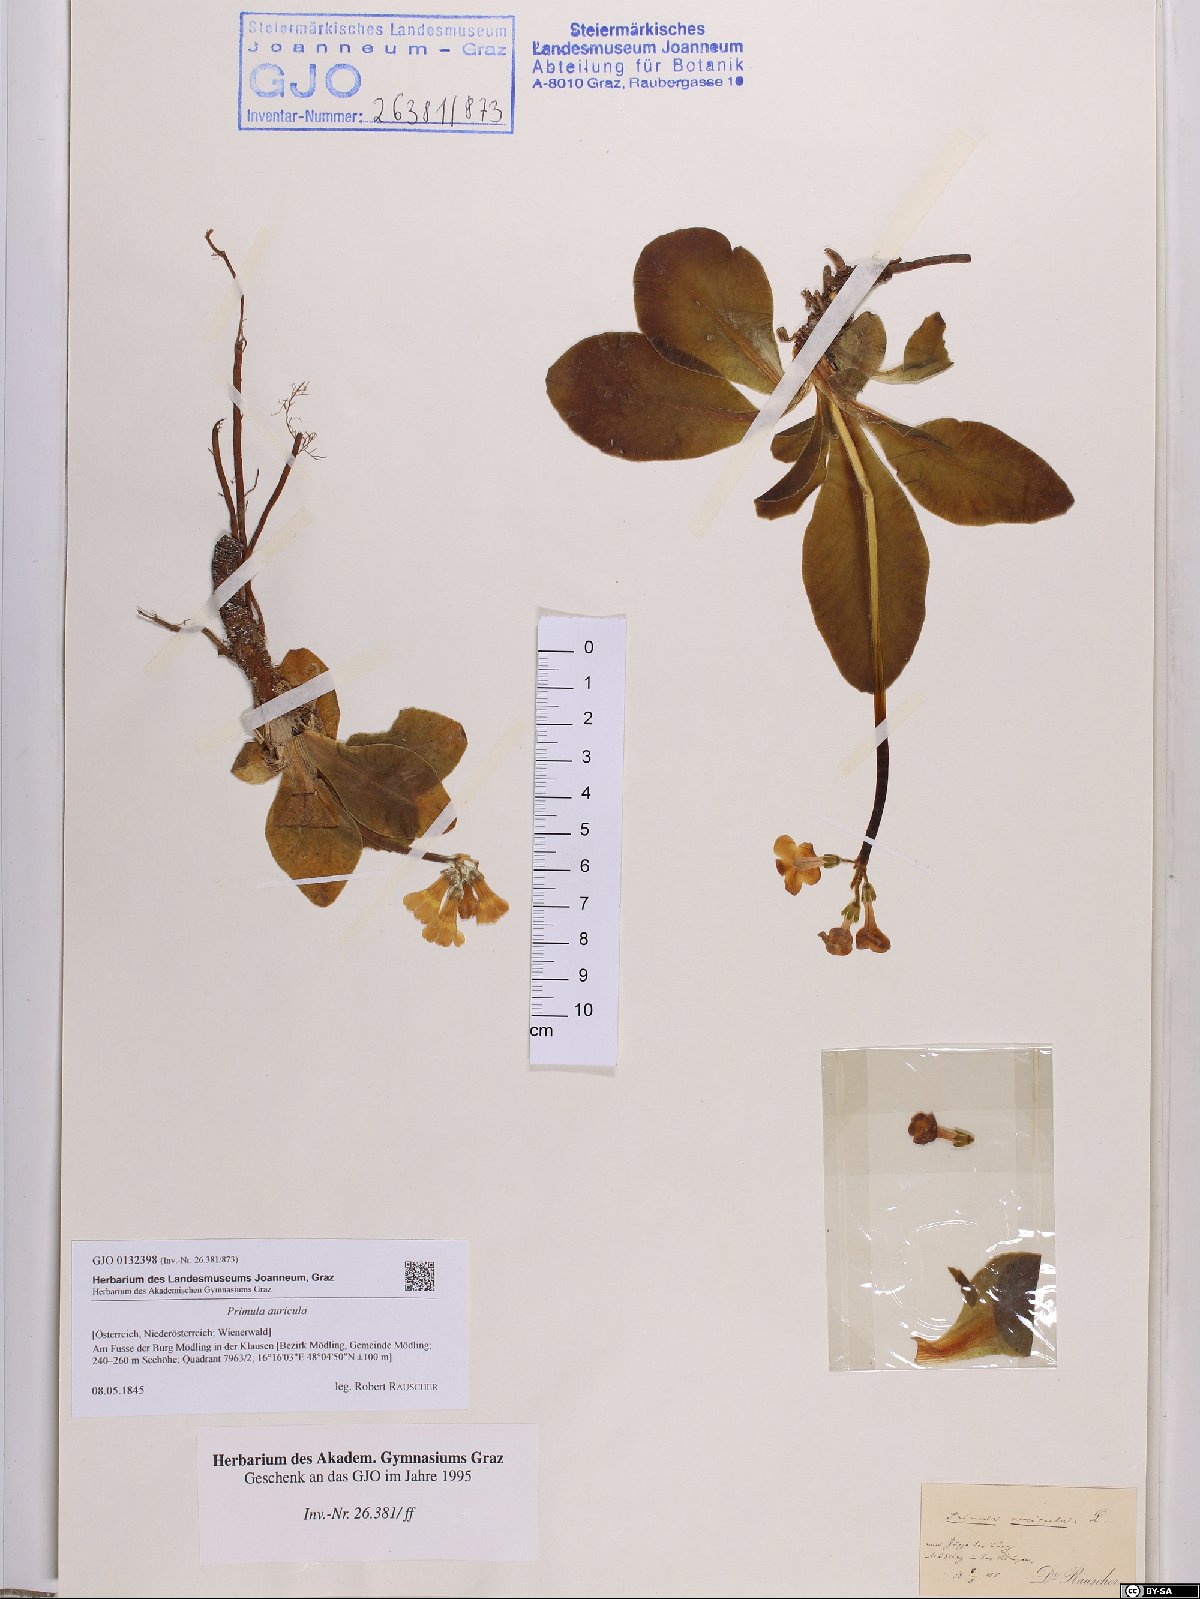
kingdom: Plantae
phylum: Tracheophyta
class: Magnoliopsida
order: Ericales
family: Primulaceae
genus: Primula
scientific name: Primula auricula
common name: Auricula
